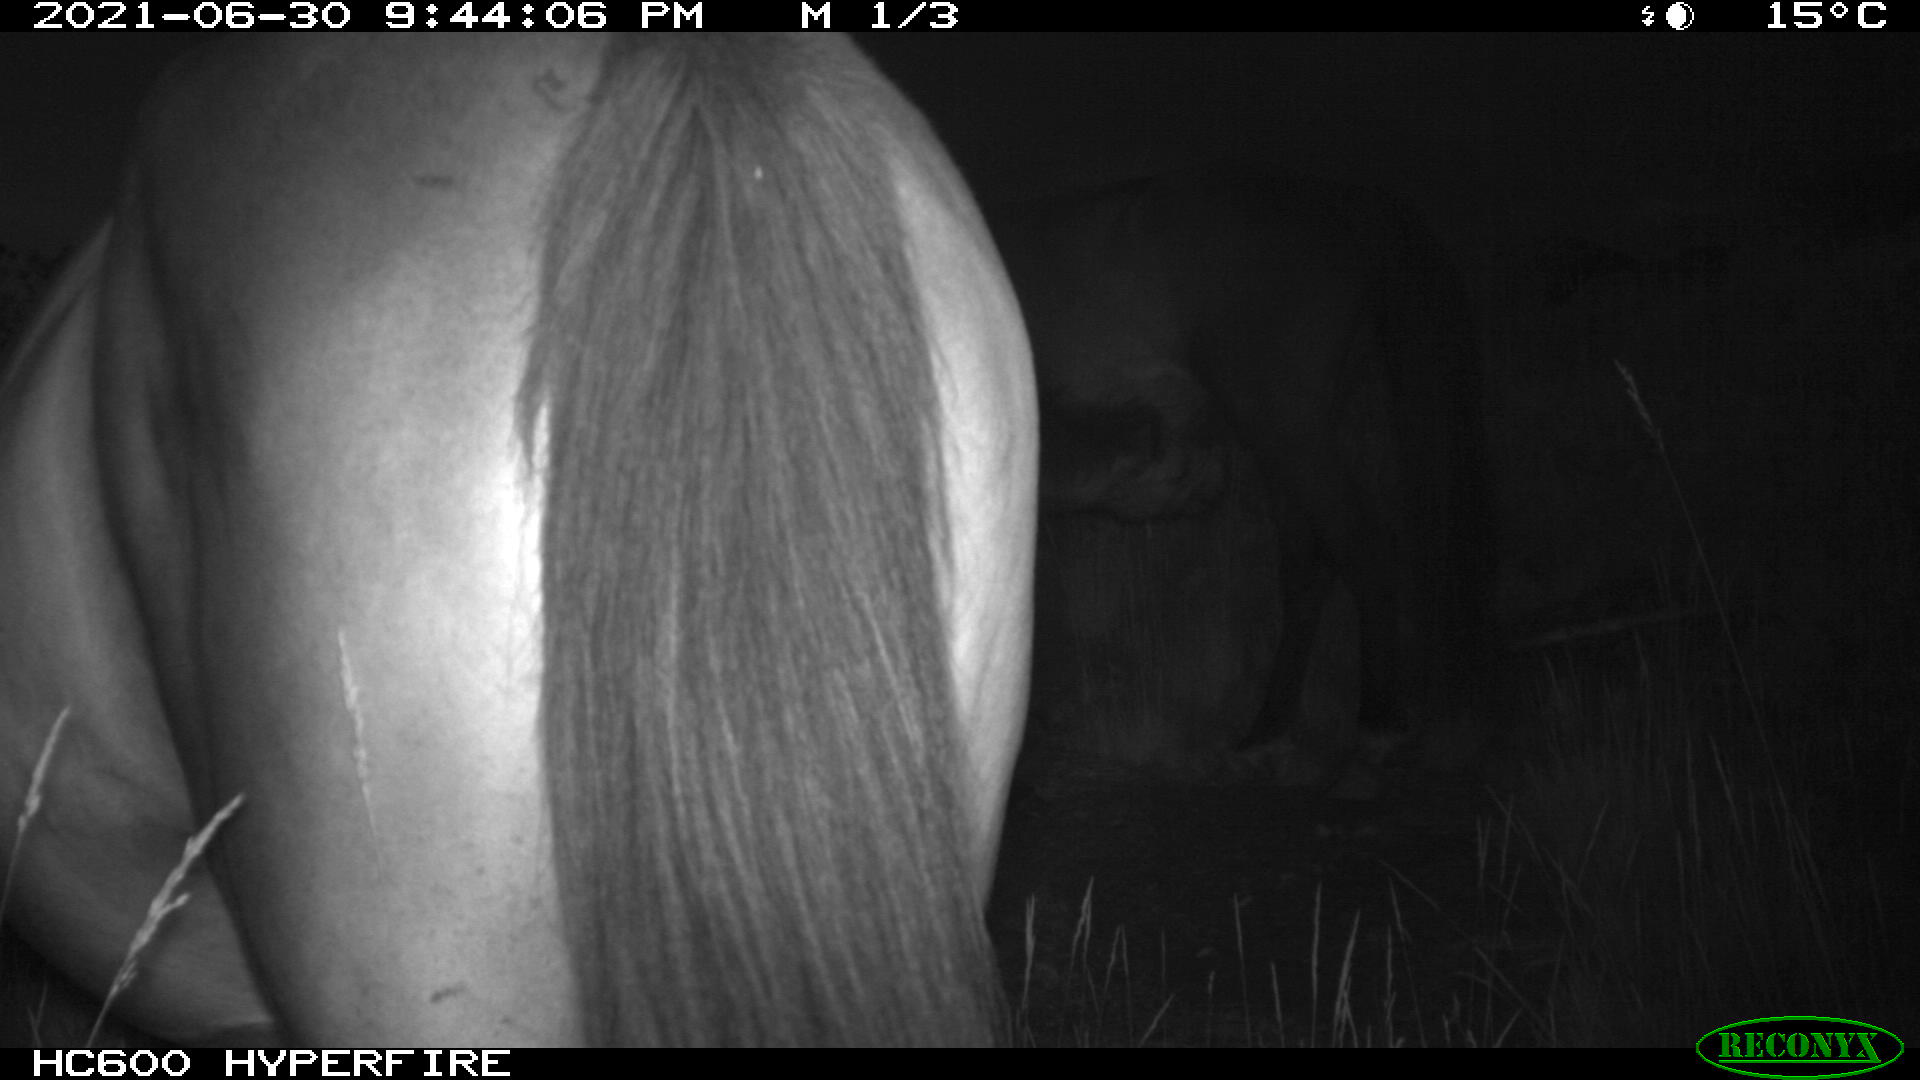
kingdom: Animalia
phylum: Chordata
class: Mammalia
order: Perissodactyla
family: Equidae
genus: Equus
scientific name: Equus caballus
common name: Horse
